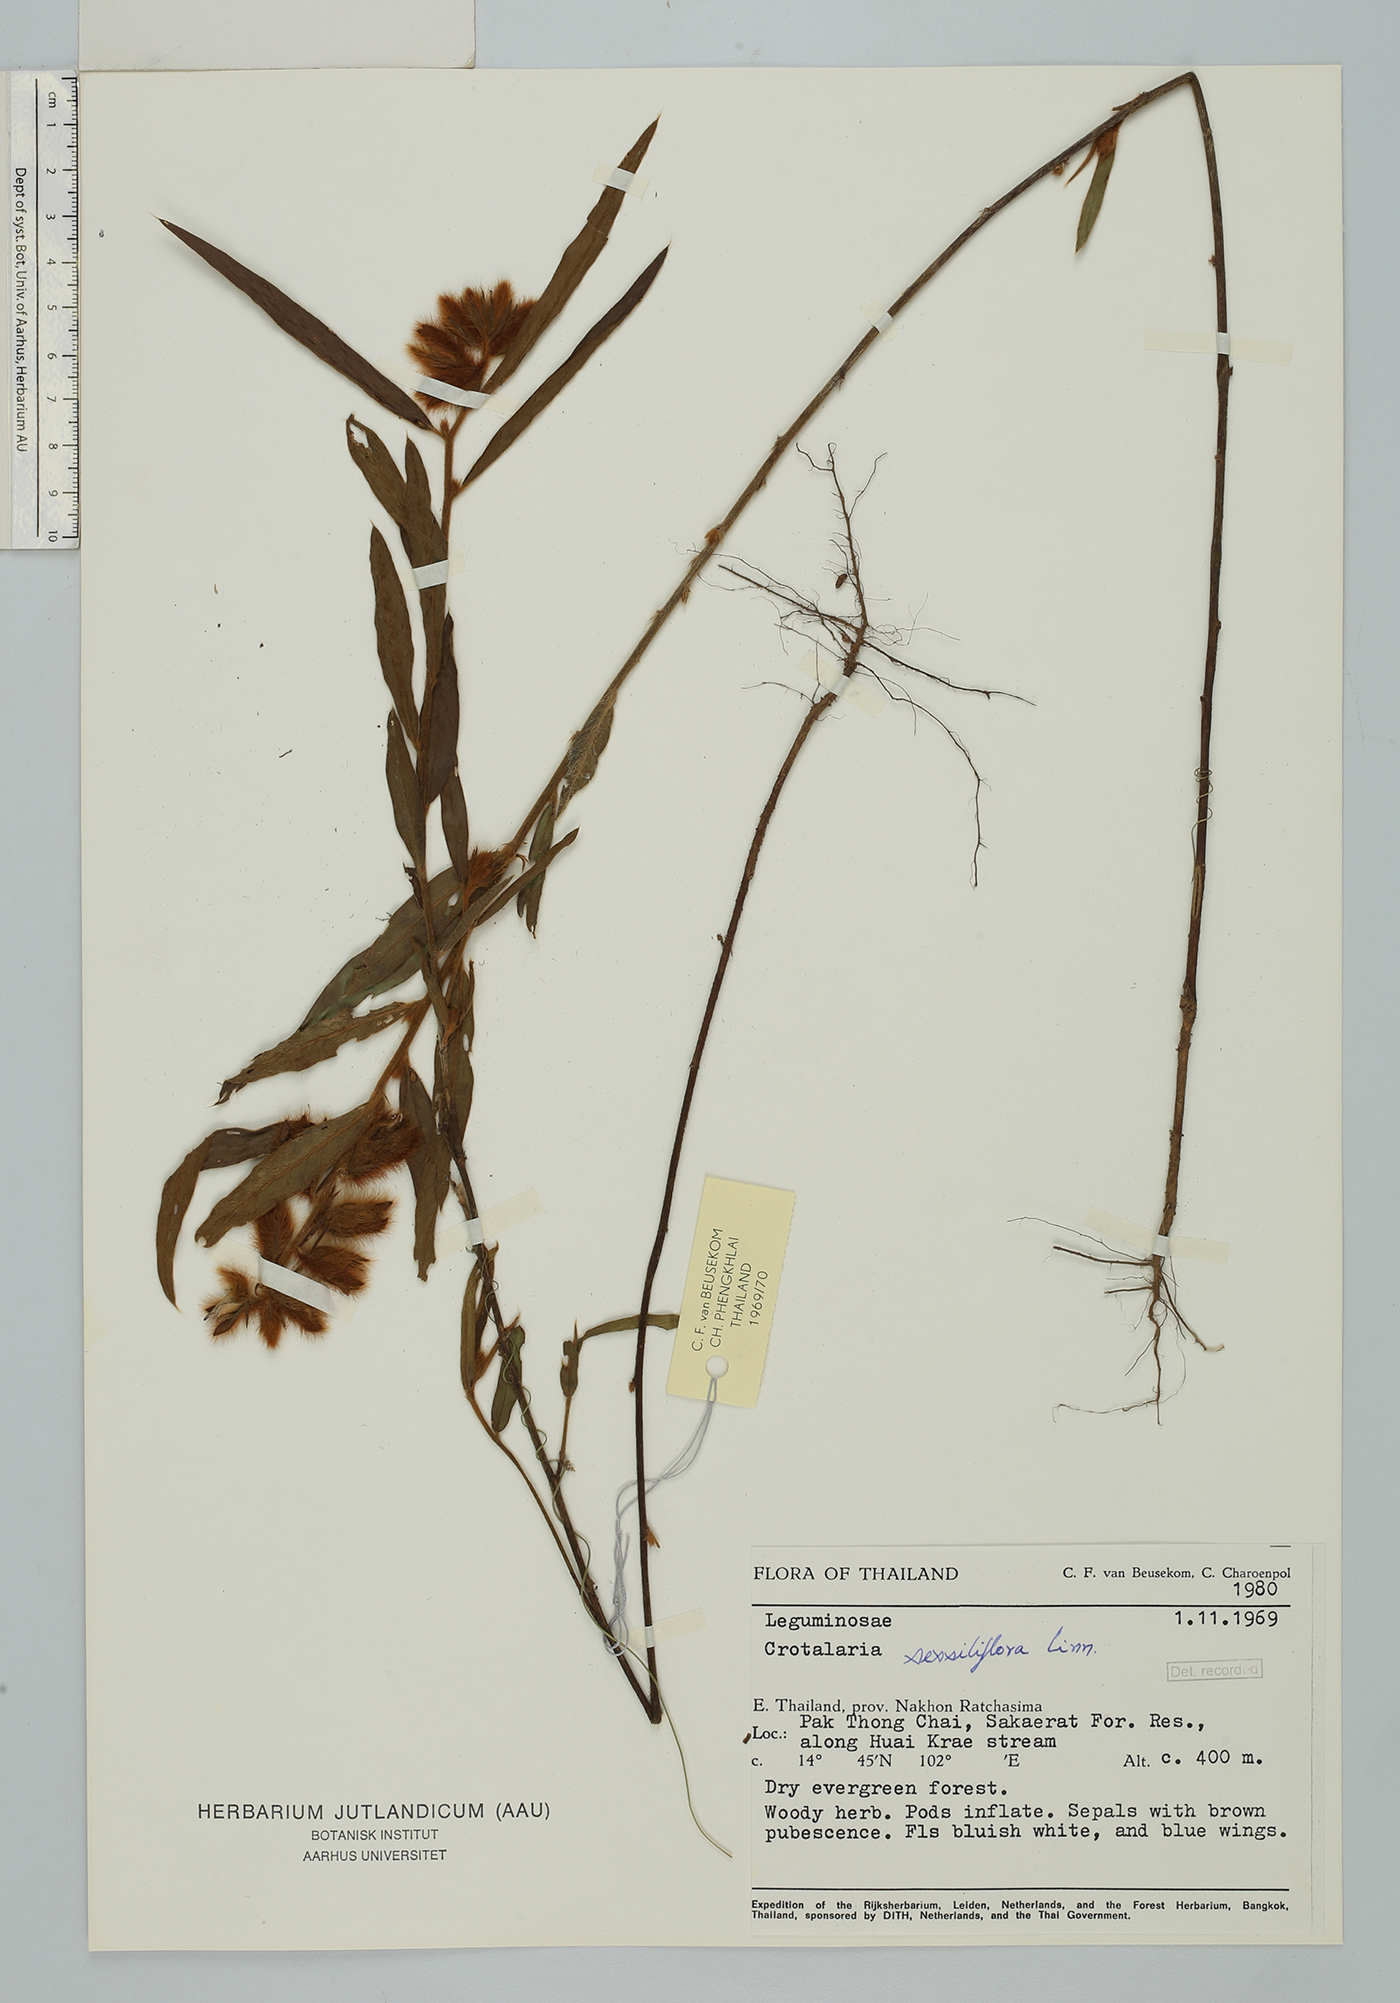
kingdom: Plantae
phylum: Tracheophyta
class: Magnoliopsida
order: Fabales
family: Fabaceae
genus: Crotalaria
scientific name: Crotalaria sessiliflora
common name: Rattlebox
